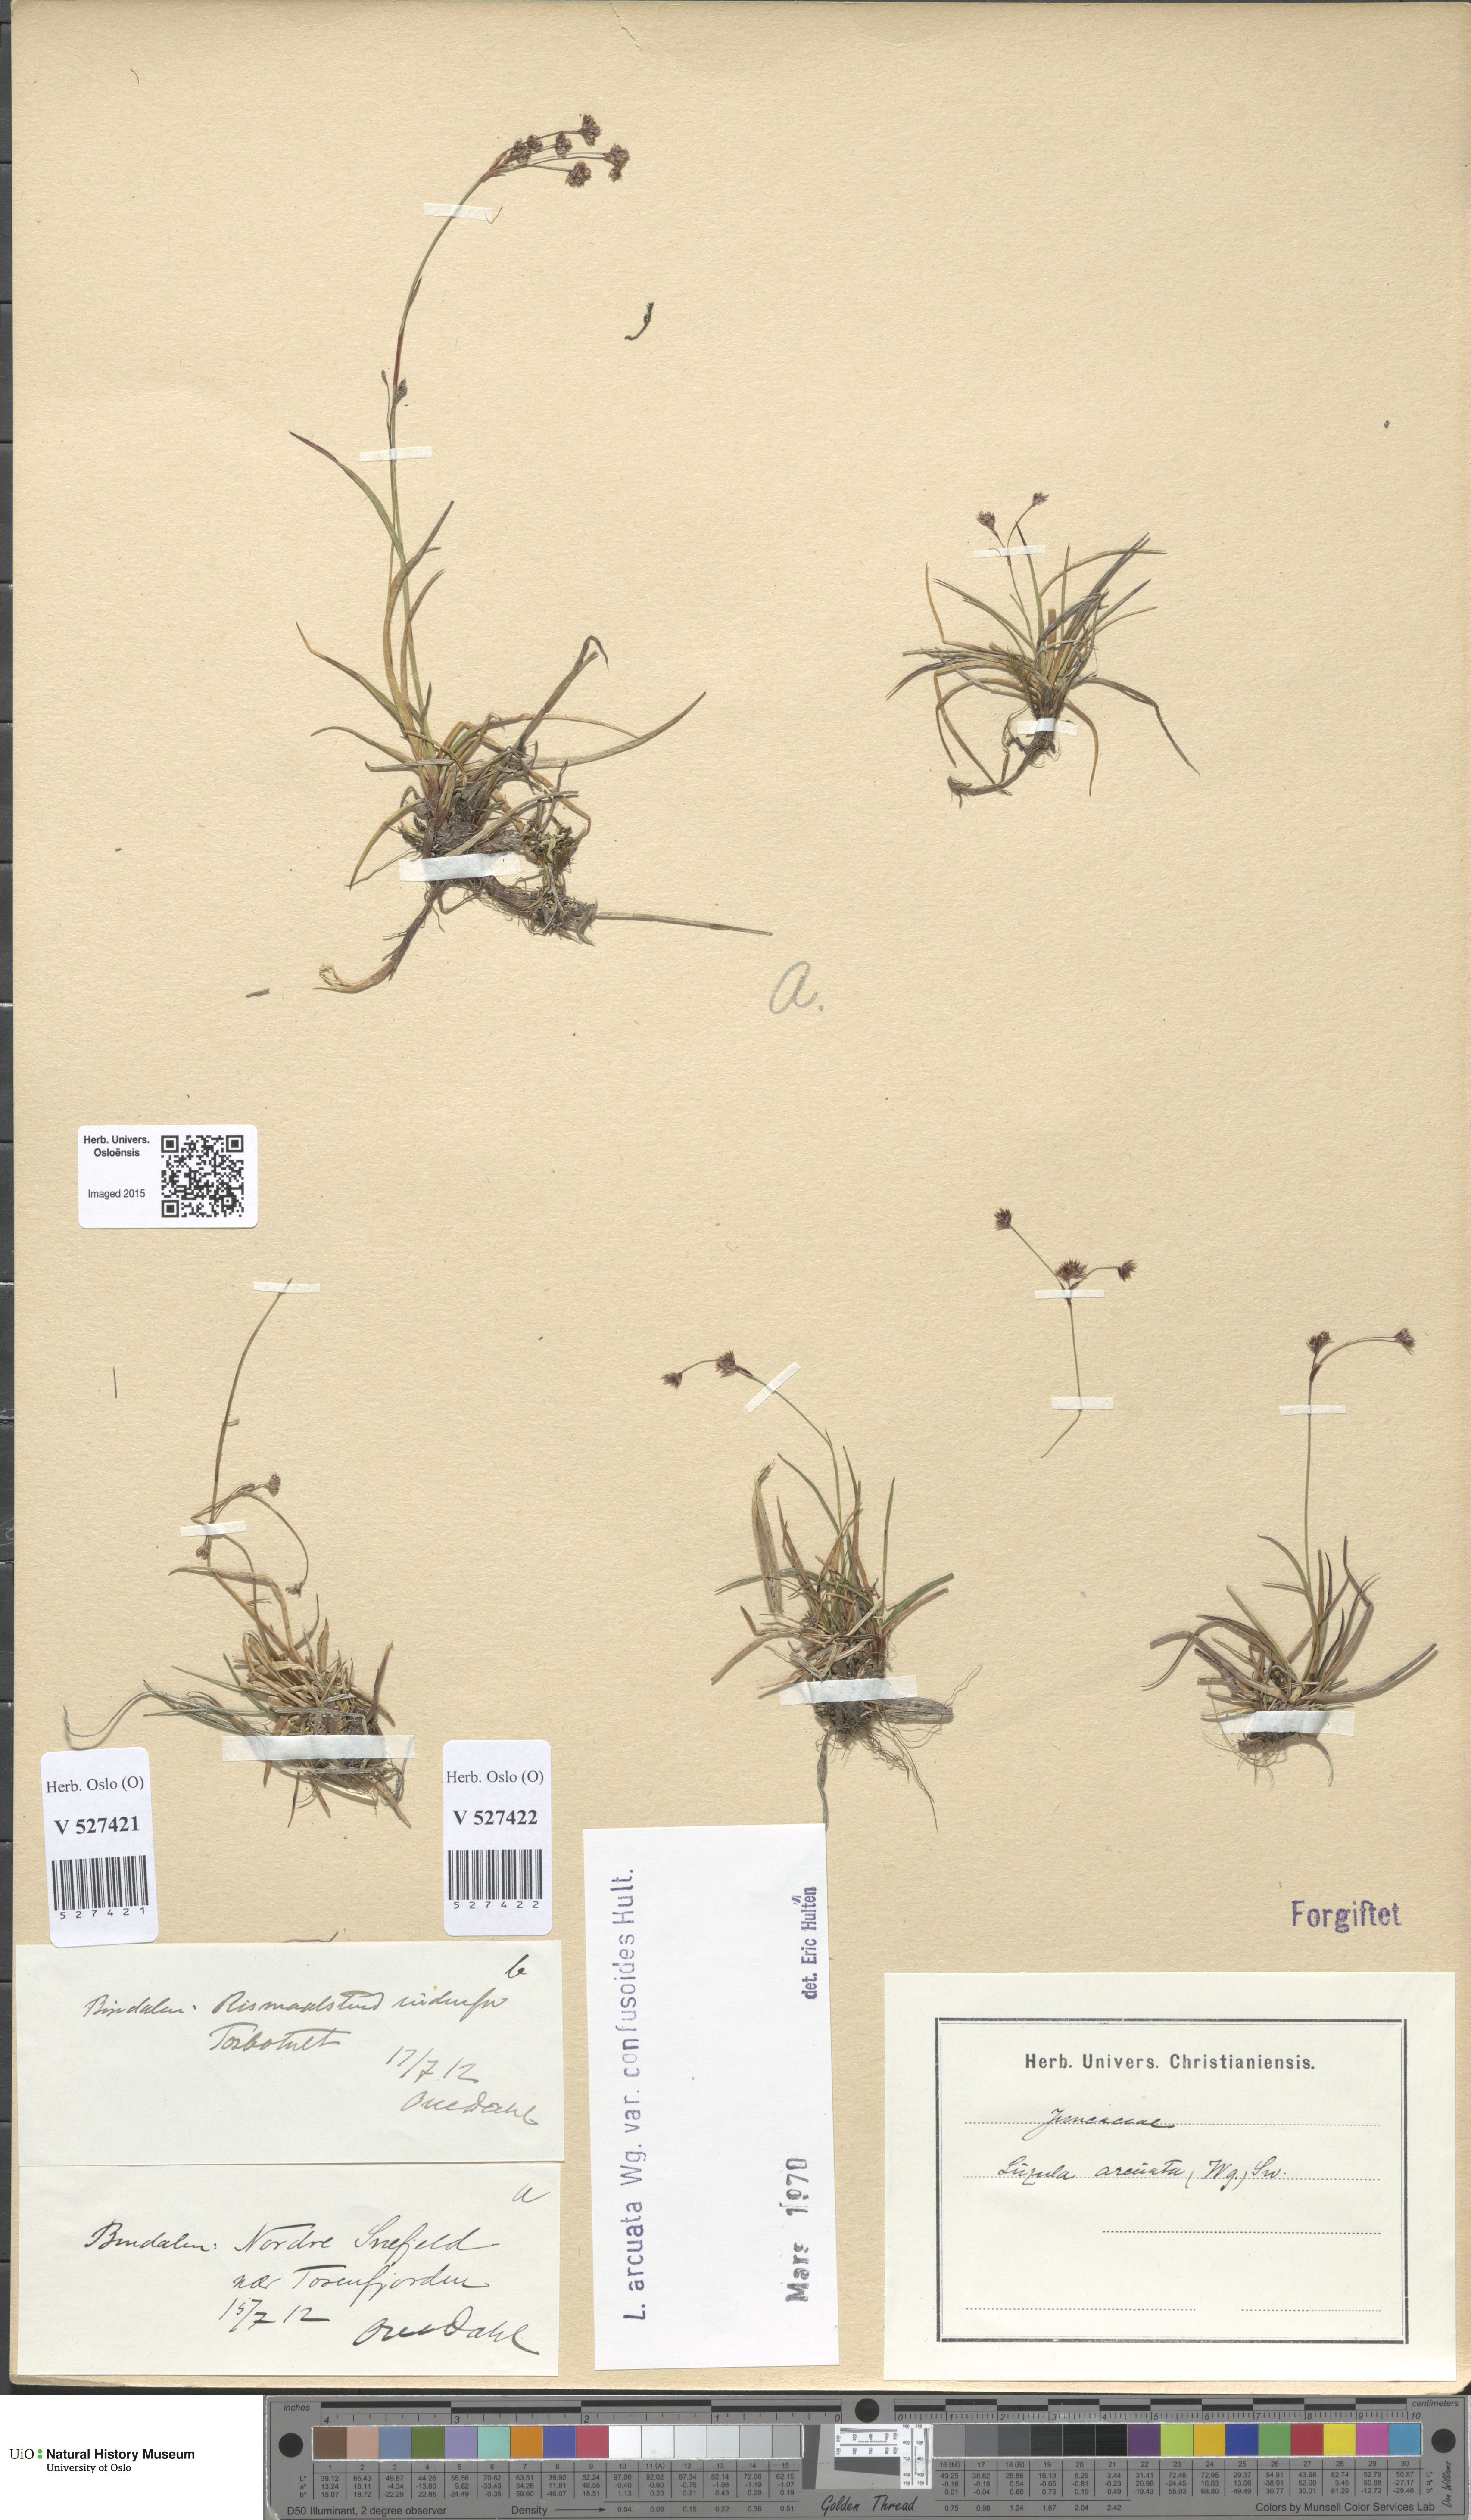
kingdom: Plantae
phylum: Tracheophyta
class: Liliopsida
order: Poales
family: Juncaceae
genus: Luzula
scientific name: Luzula arcuata
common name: Curved wood-rush
